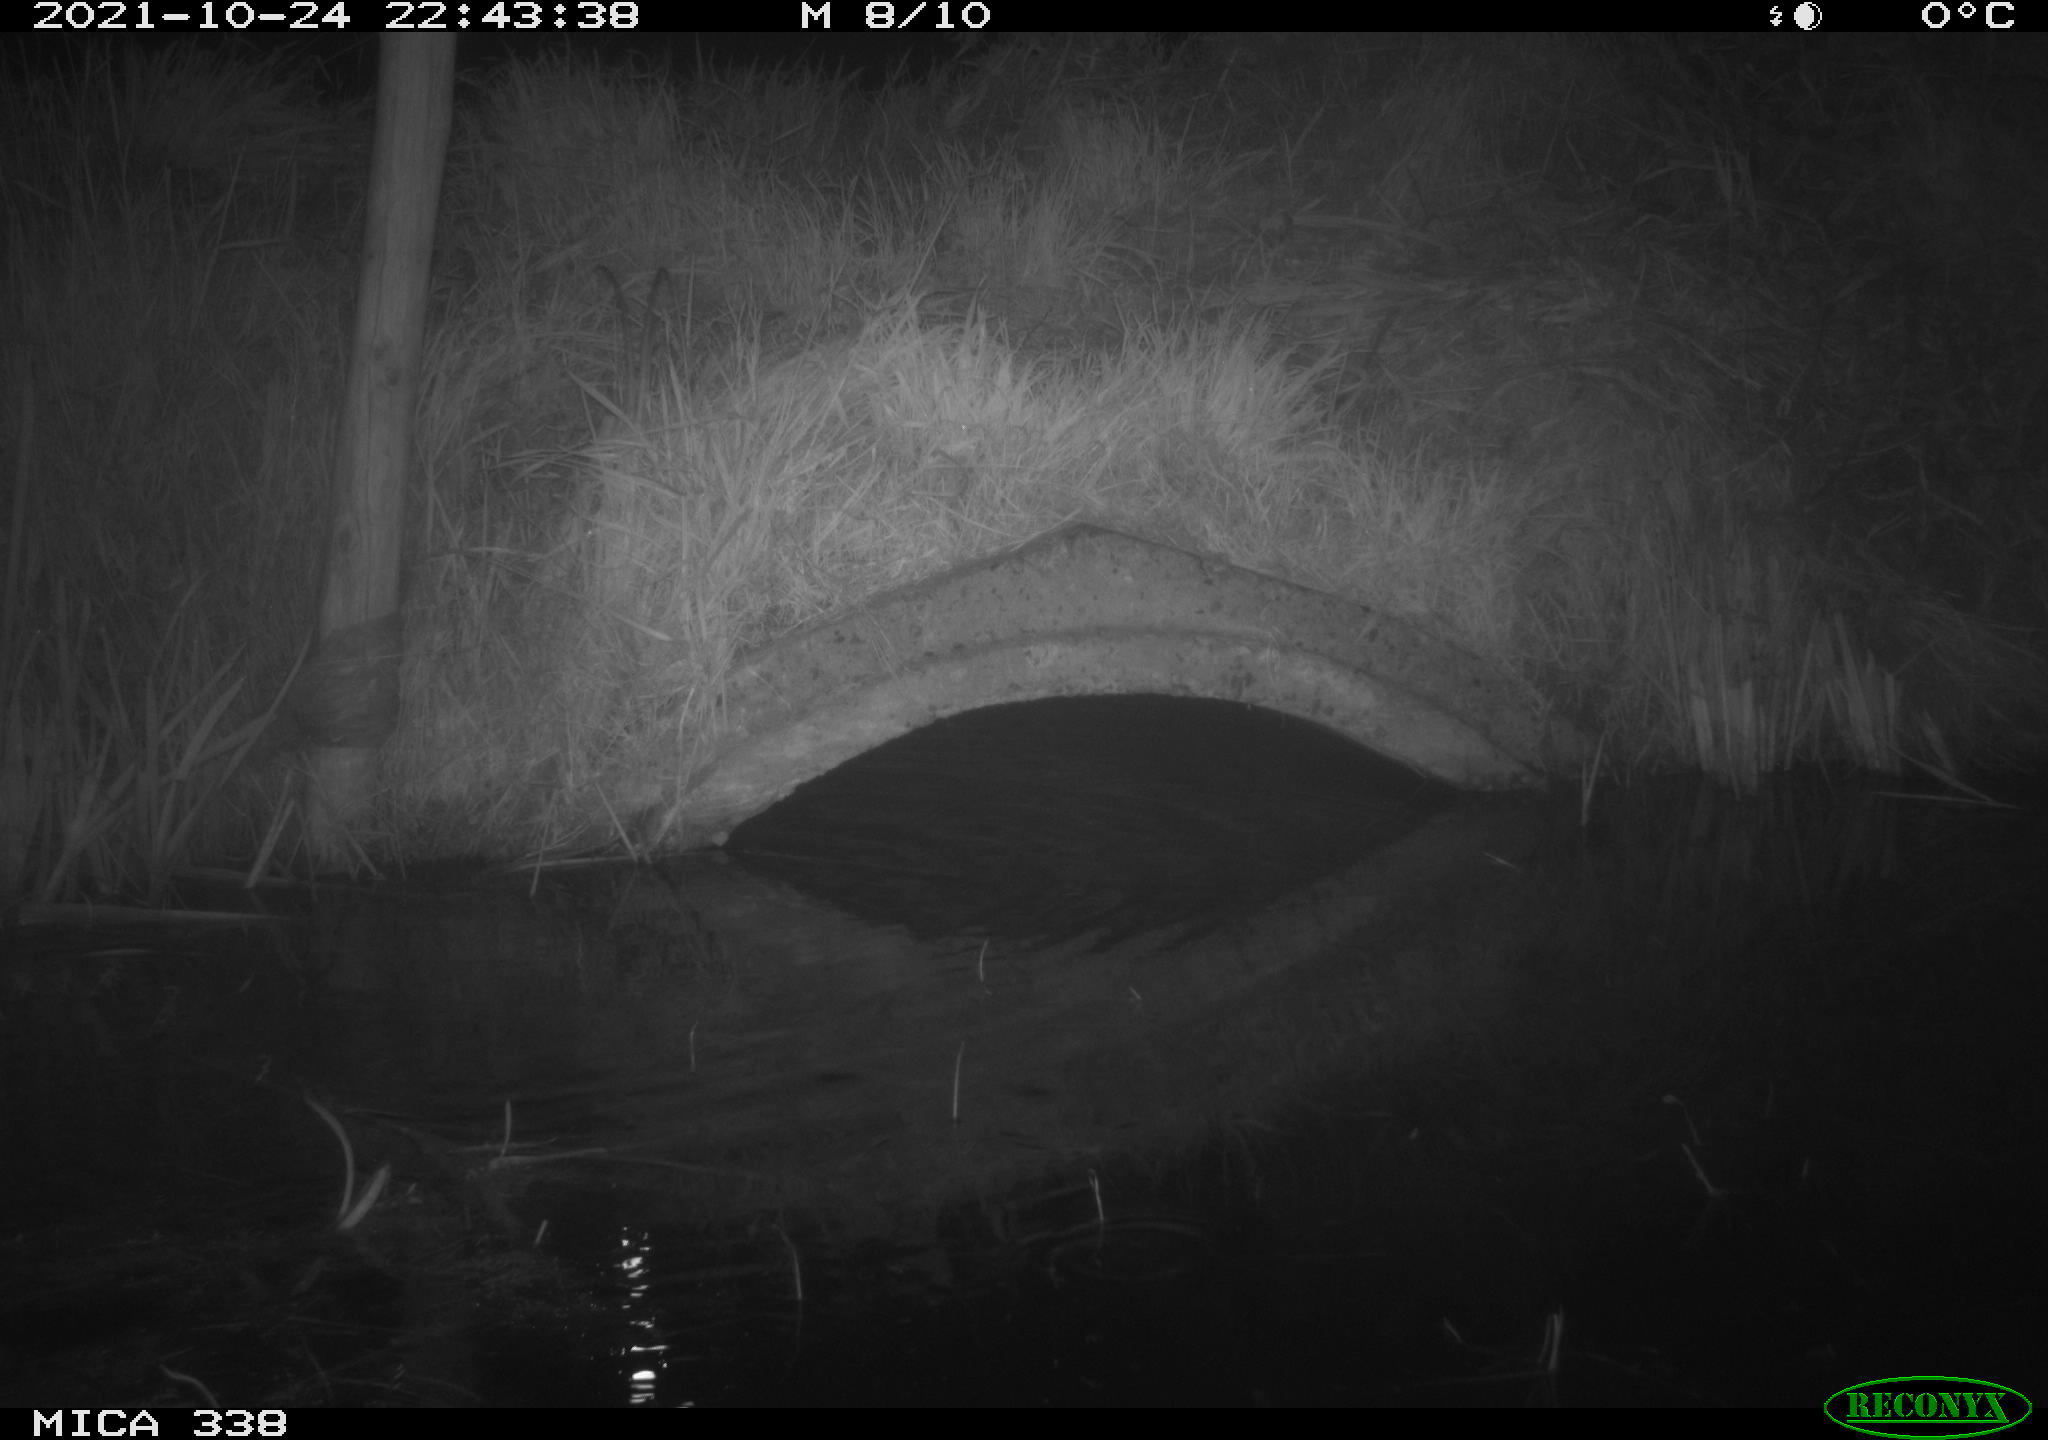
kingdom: Animalia
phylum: Chordata
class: Mammalia
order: Rodentia
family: Muridae
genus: Rattus
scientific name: Rattus norvegicus
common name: Brown rat
